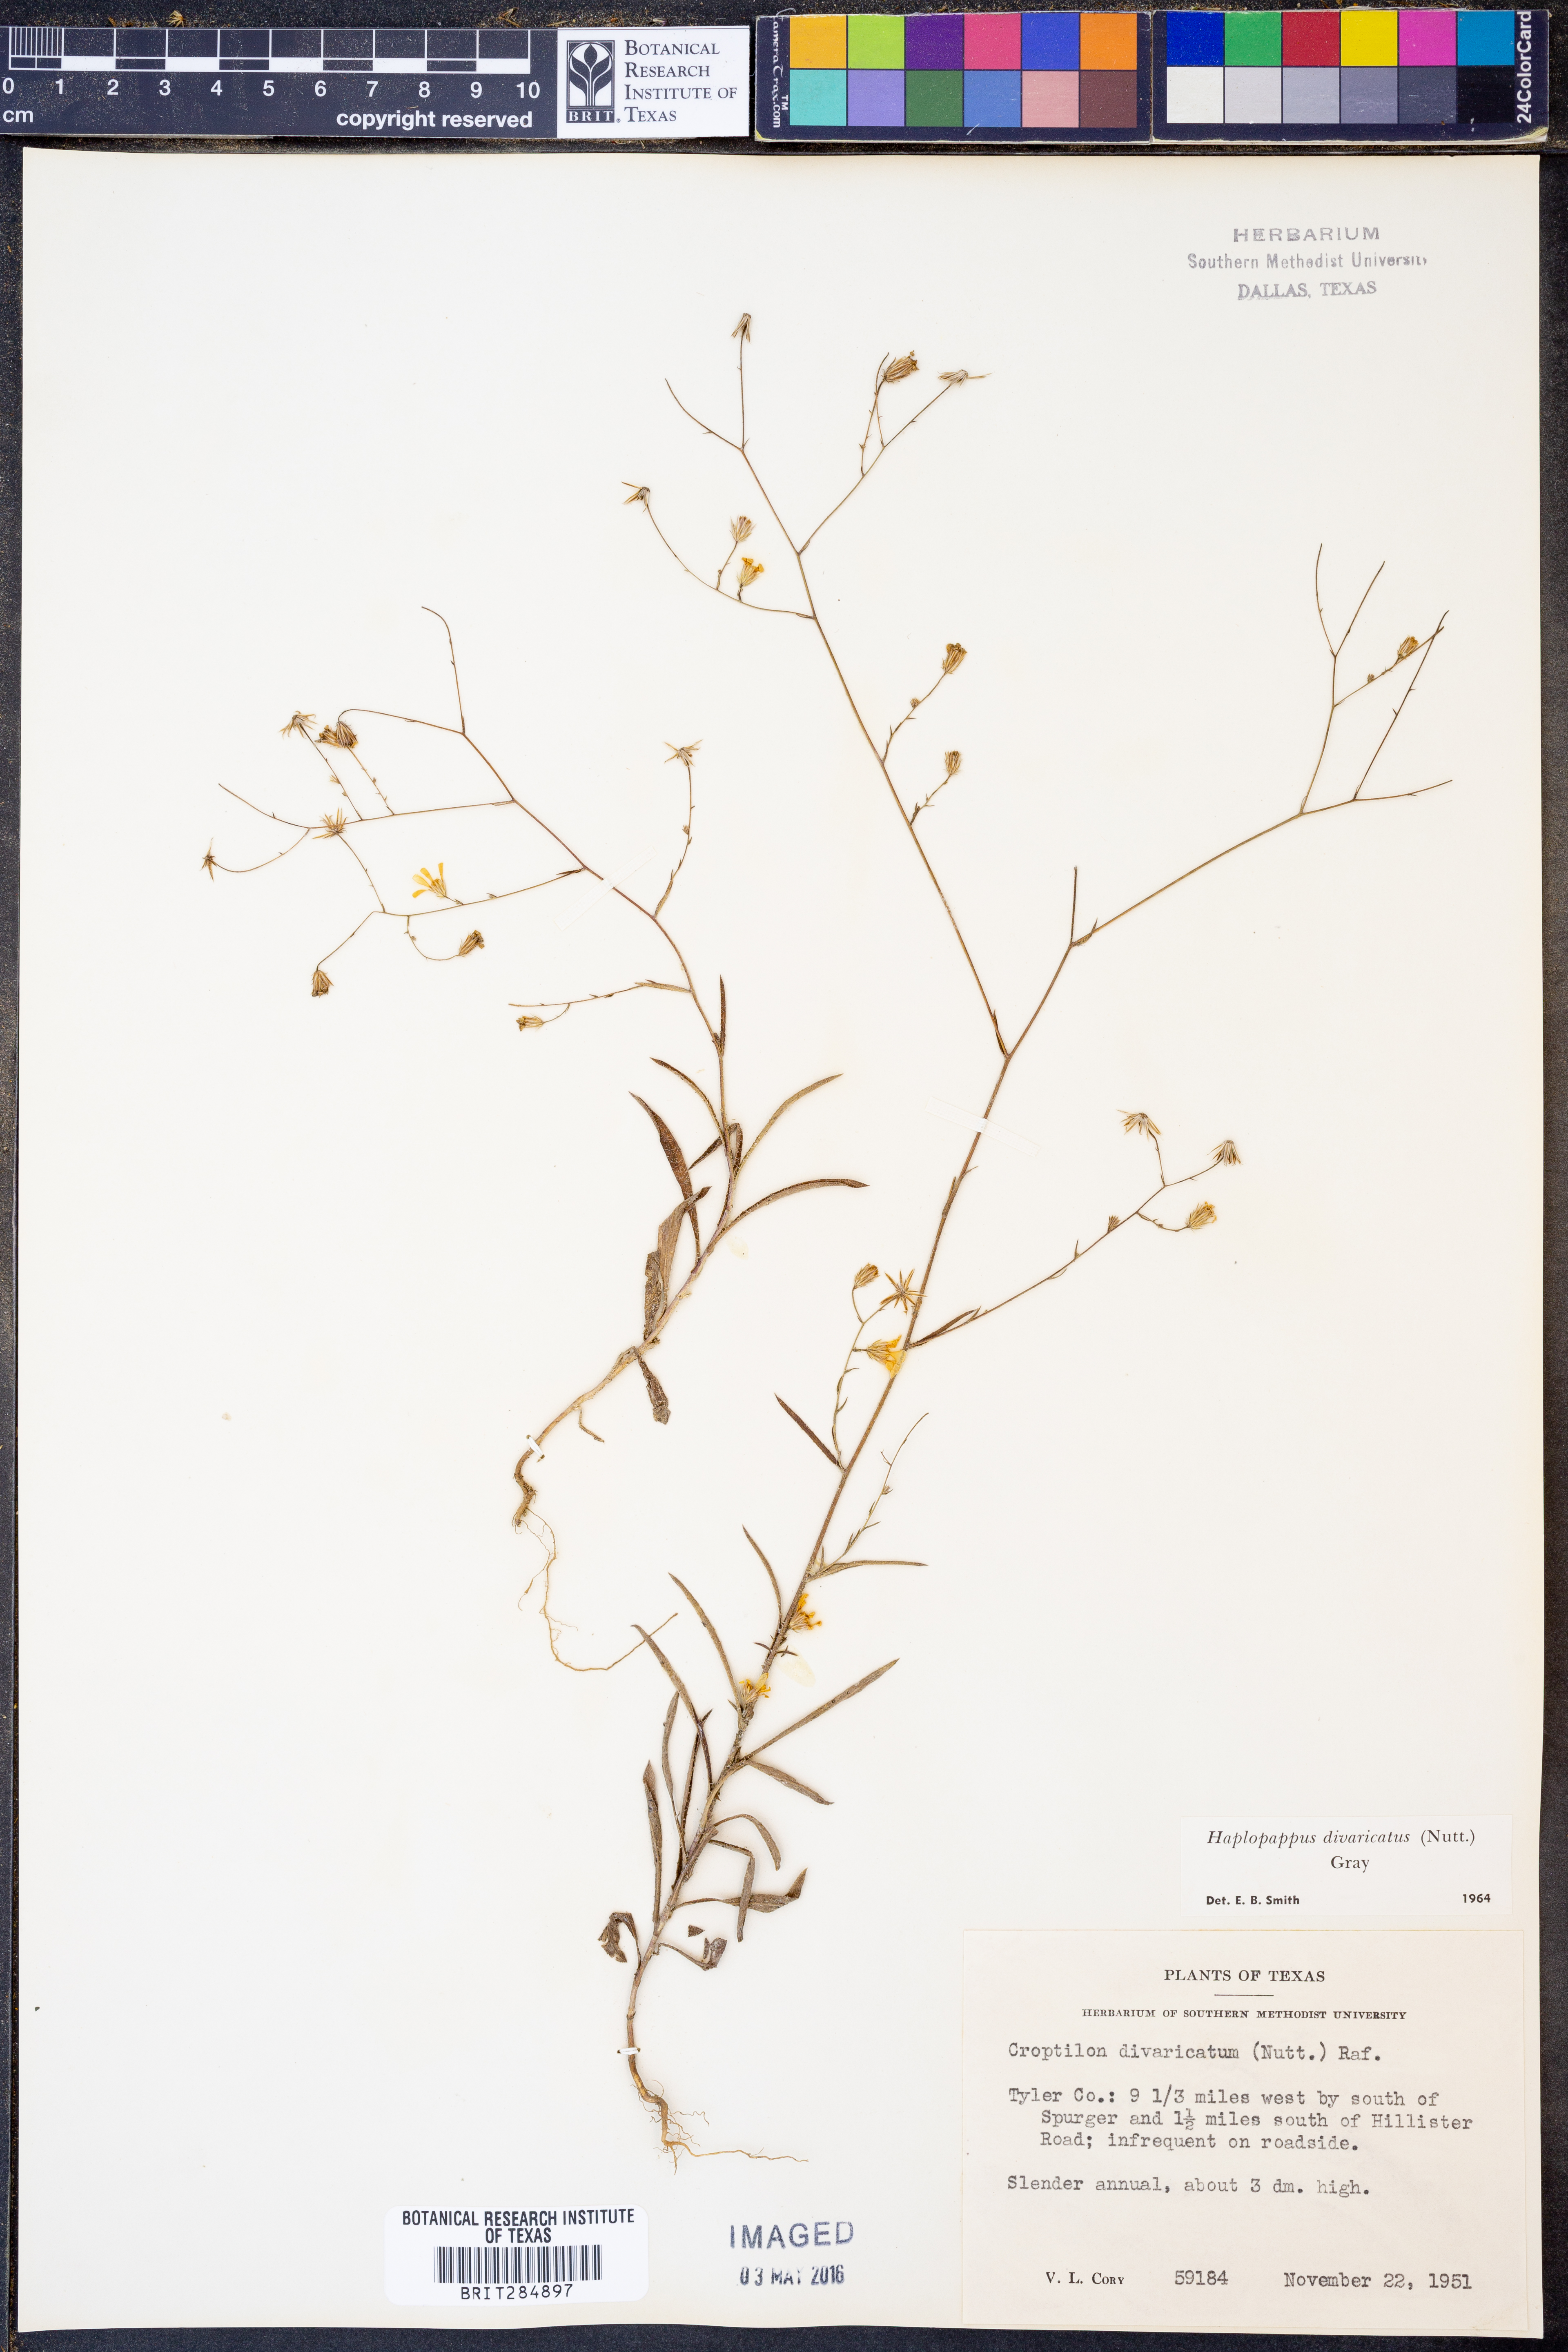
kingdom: Plantae
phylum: Tracheophyta
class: Magnoliopsida
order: Asterales
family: Asteraceae
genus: Croptilon
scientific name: Croptilon divaricatum
